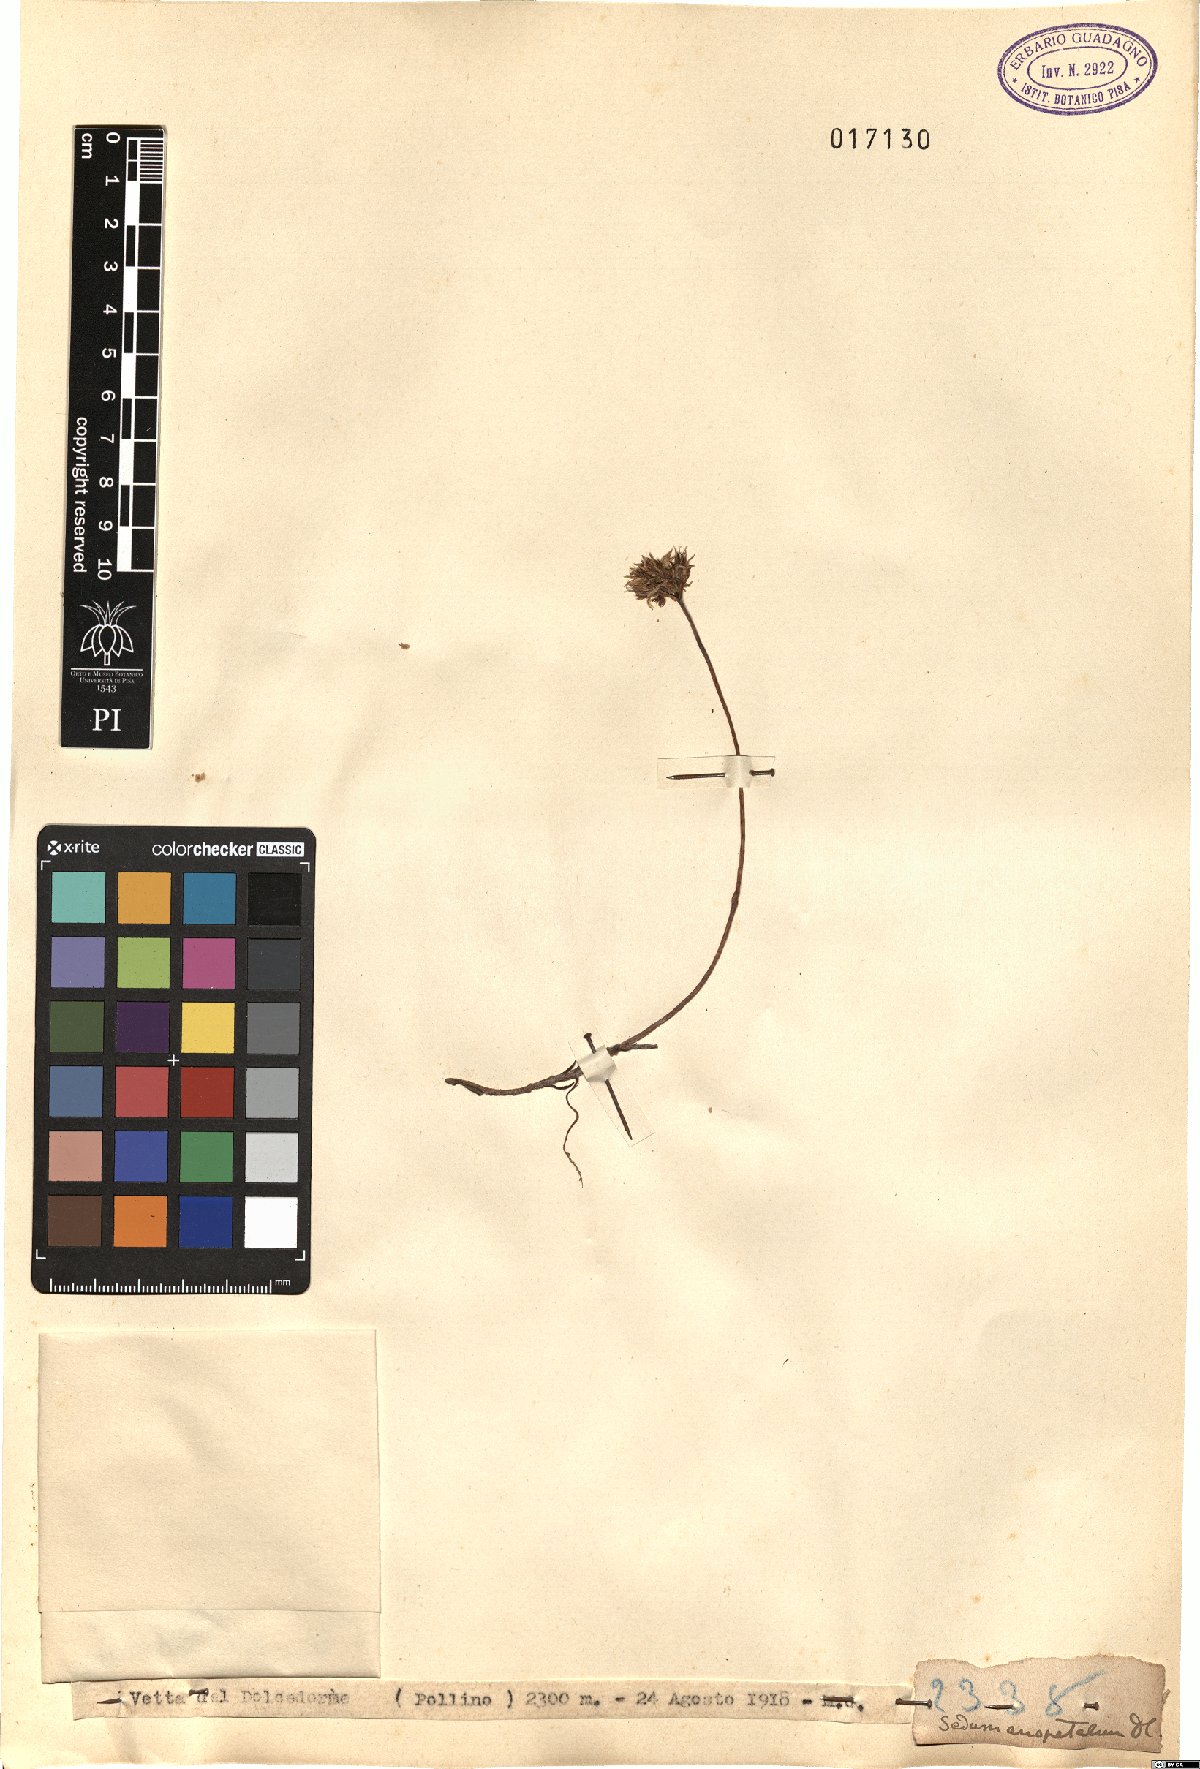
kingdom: Plantae
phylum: Tracheophyta
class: Magnoliopsida
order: Saxifragales
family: Crassulaceae
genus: Petrosedum
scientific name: Petrosedum
